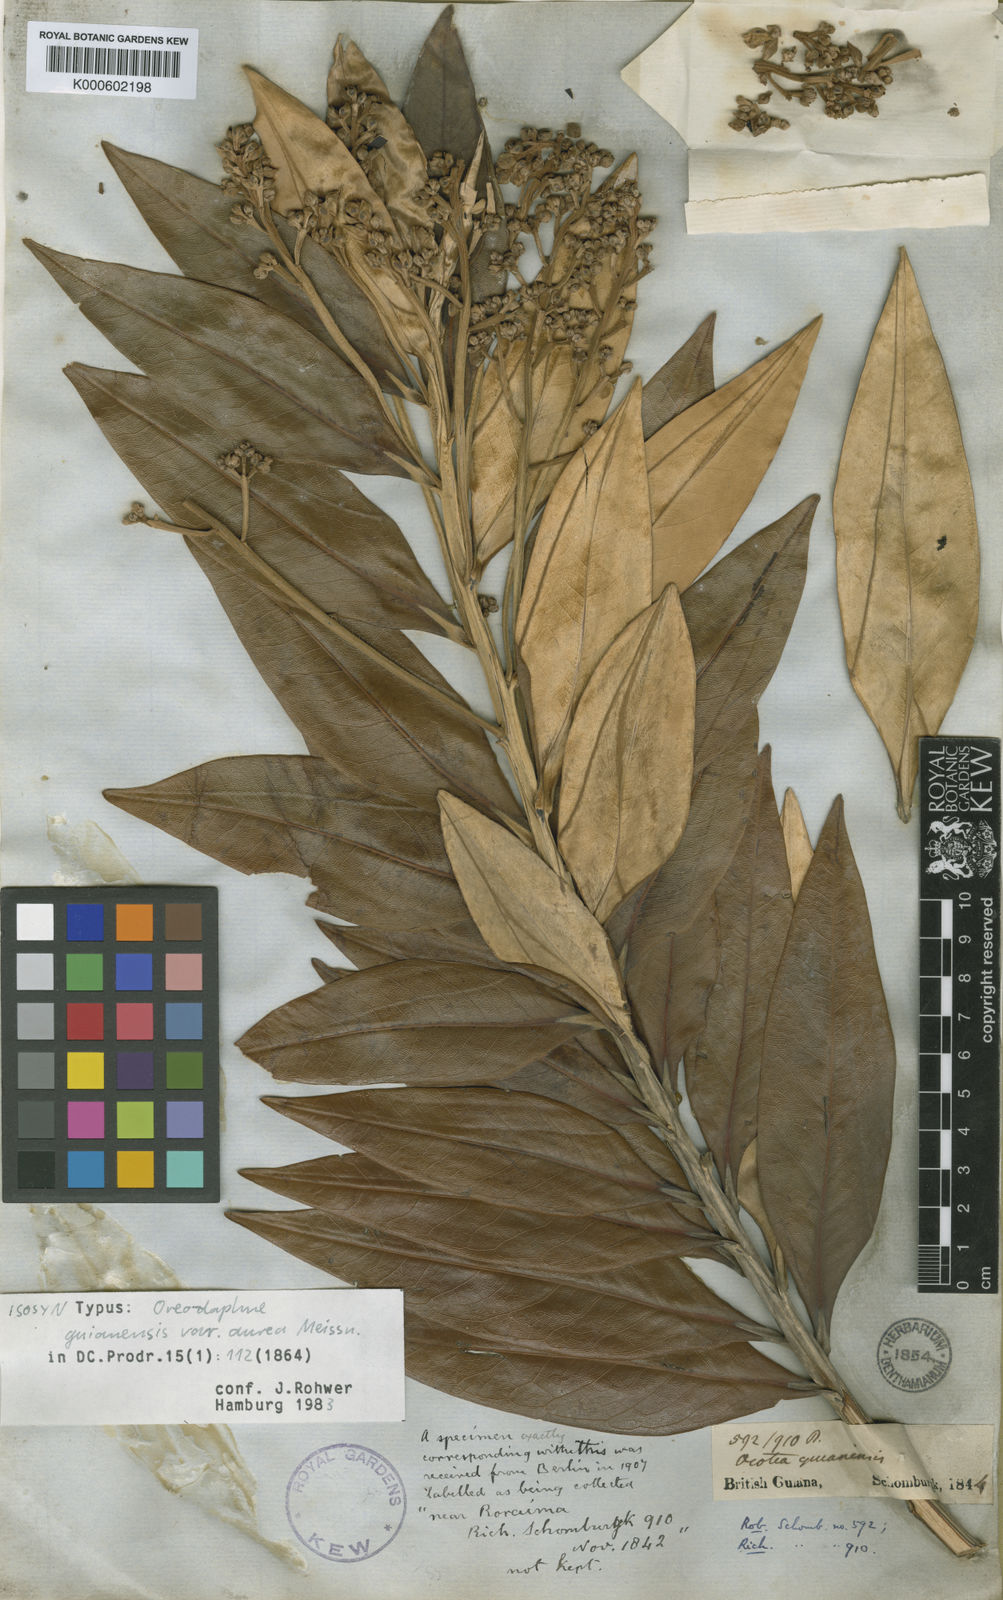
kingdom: Plantae
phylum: Tracheophyta
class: Magnoliopsida
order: Laurales
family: Lauraceae
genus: Ocotea
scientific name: Ocotea guianensis
